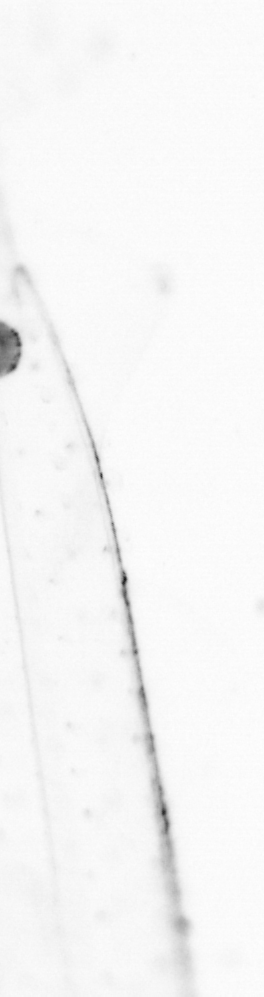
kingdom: Animalia
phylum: Chaetognatha
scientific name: Chaetognatha
